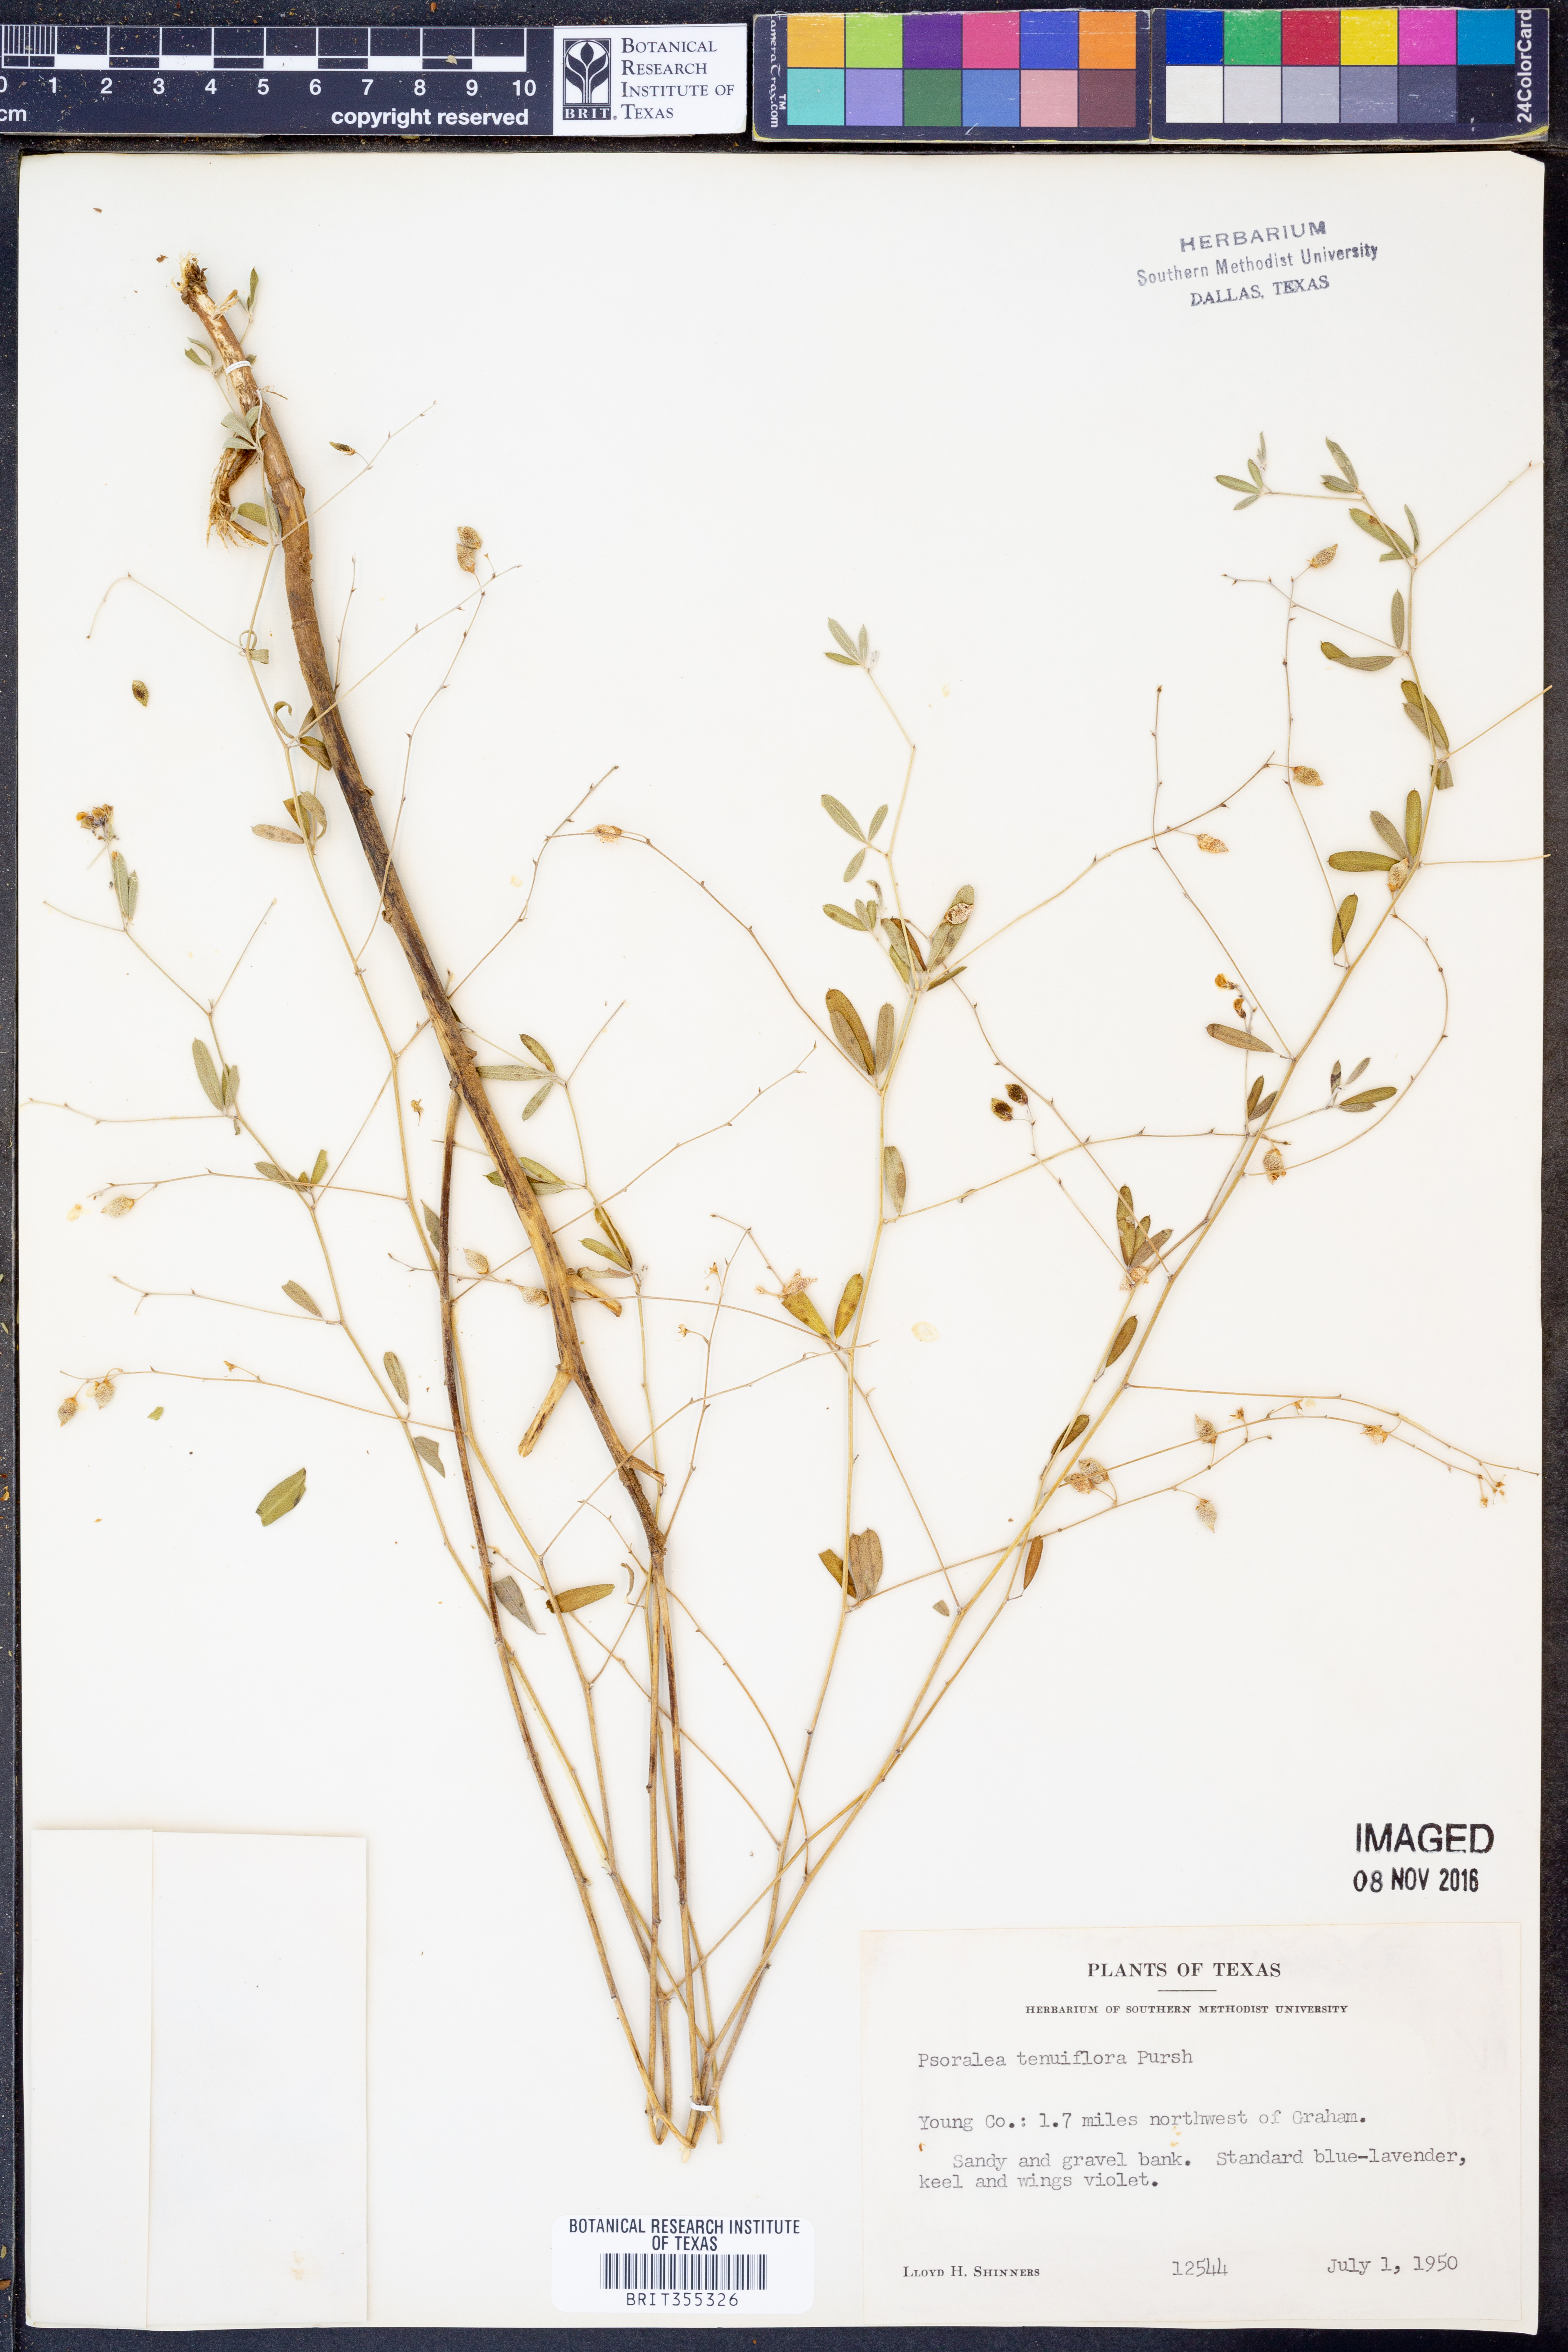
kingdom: Plantae
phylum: Tracheophyta
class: Magnoliopsida
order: Fabales
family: Fabaceae
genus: Pediomelum
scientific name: Pediomelum tenuiflorum
